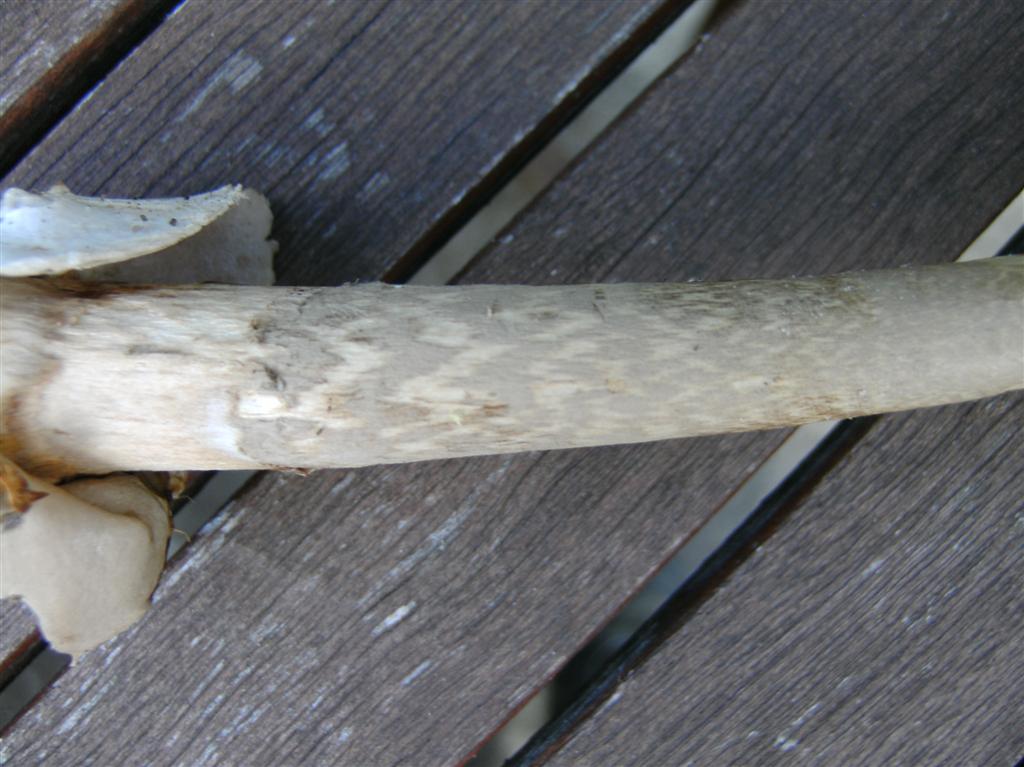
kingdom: Fungi
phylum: Basidiomycota
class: Agaricomycetes
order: Agaricales
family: Amanitaceae
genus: Amanita
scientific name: Amanita submembranacea
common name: gråspættet kam-fluesvamp
